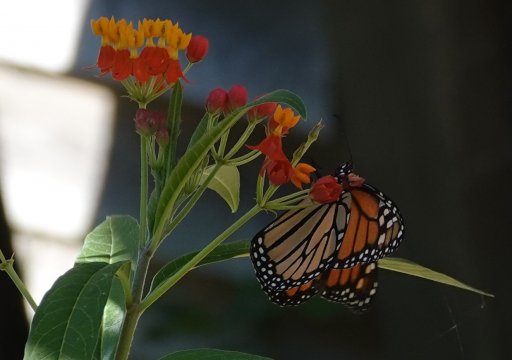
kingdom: Animalia
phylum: Arthropoda
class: Insecta
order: Lepidoptera
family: Nymphalidae
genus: Danaus
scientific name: Danaus plexippus
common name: Monarch
